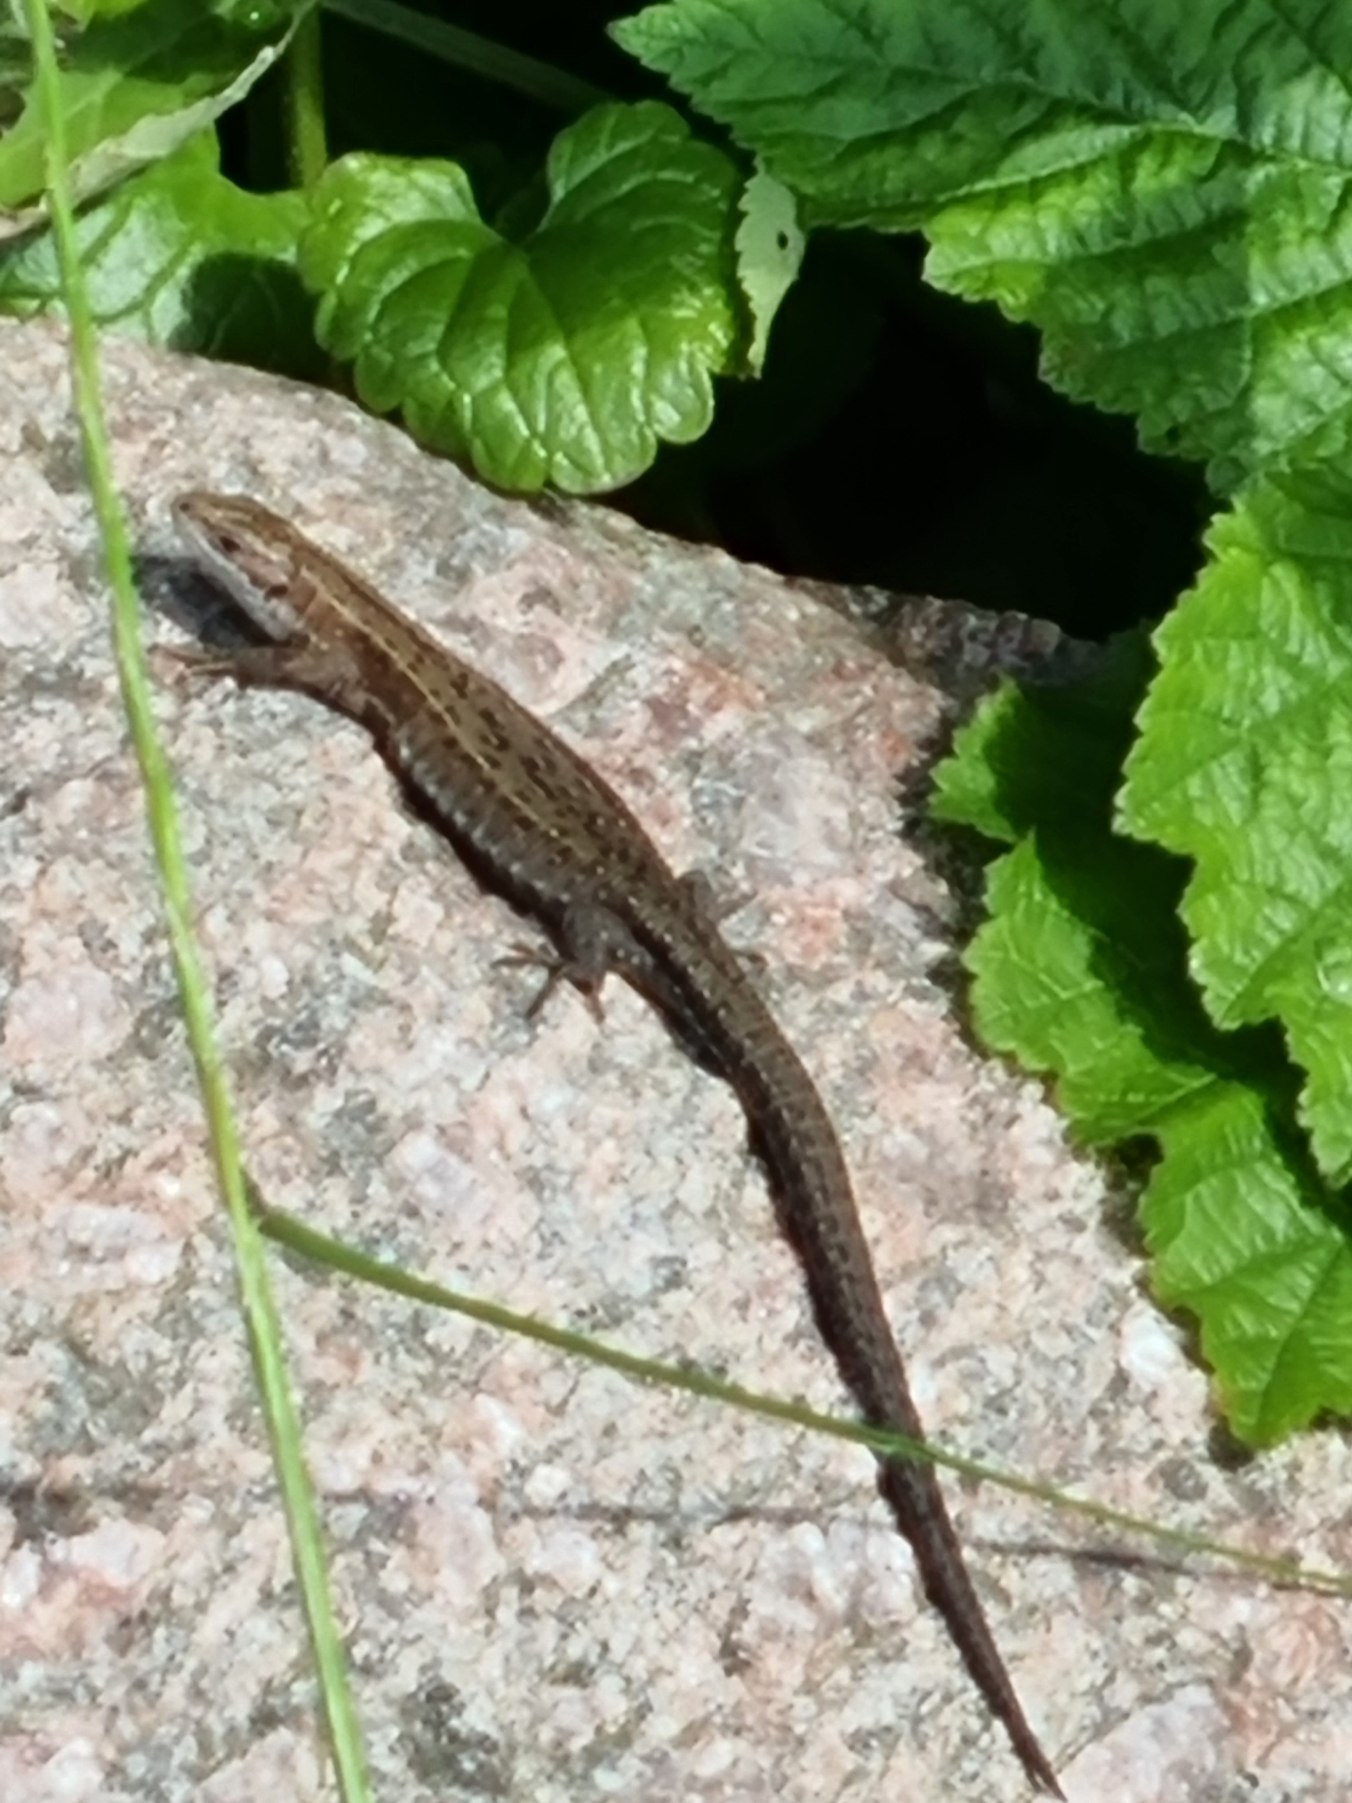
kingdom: Animalia
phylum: Chordata
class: Squamata
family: Lacertidae
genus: Zootoca
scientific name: Zootoca vivipara
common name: Skovfirben
